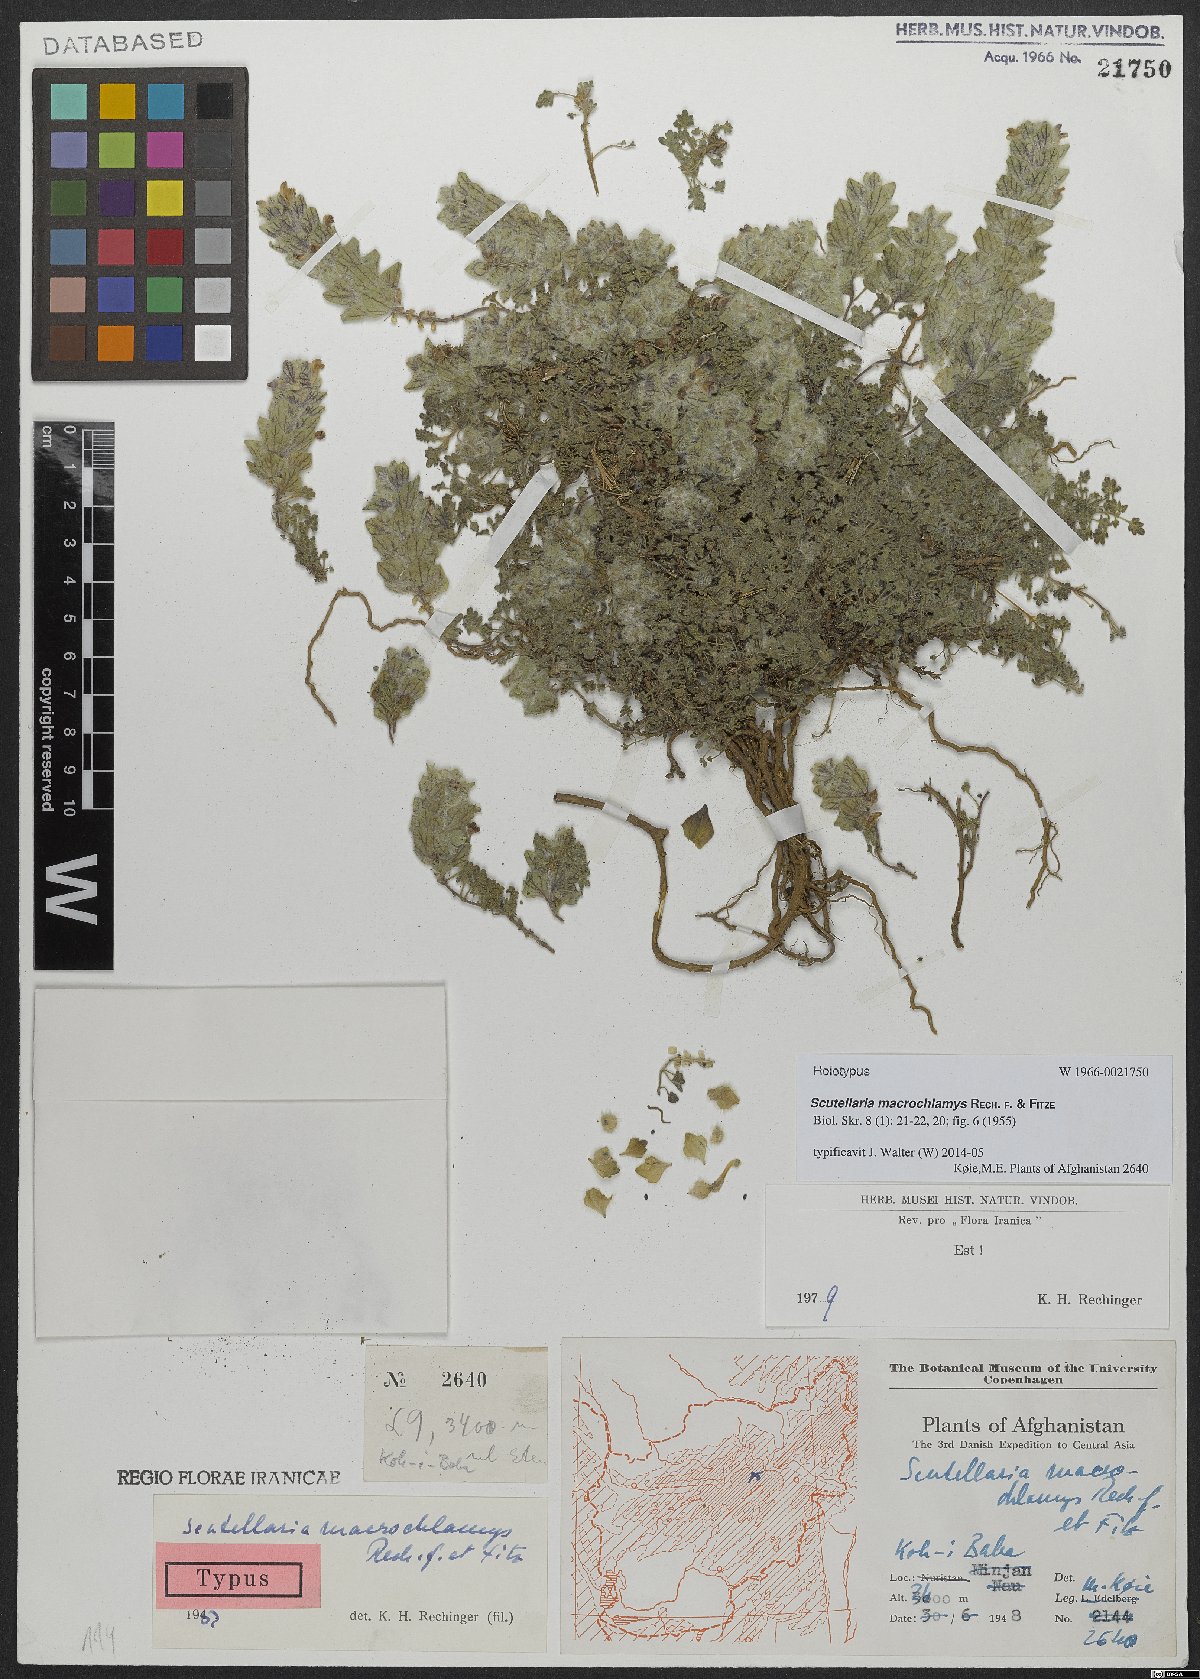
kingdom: Plantae
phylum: Tracheophyta
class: Magnoliopsida
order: Lamiales
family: Lamiaceae
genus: Scutellaria
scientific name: Scutellaria macrochlamys
